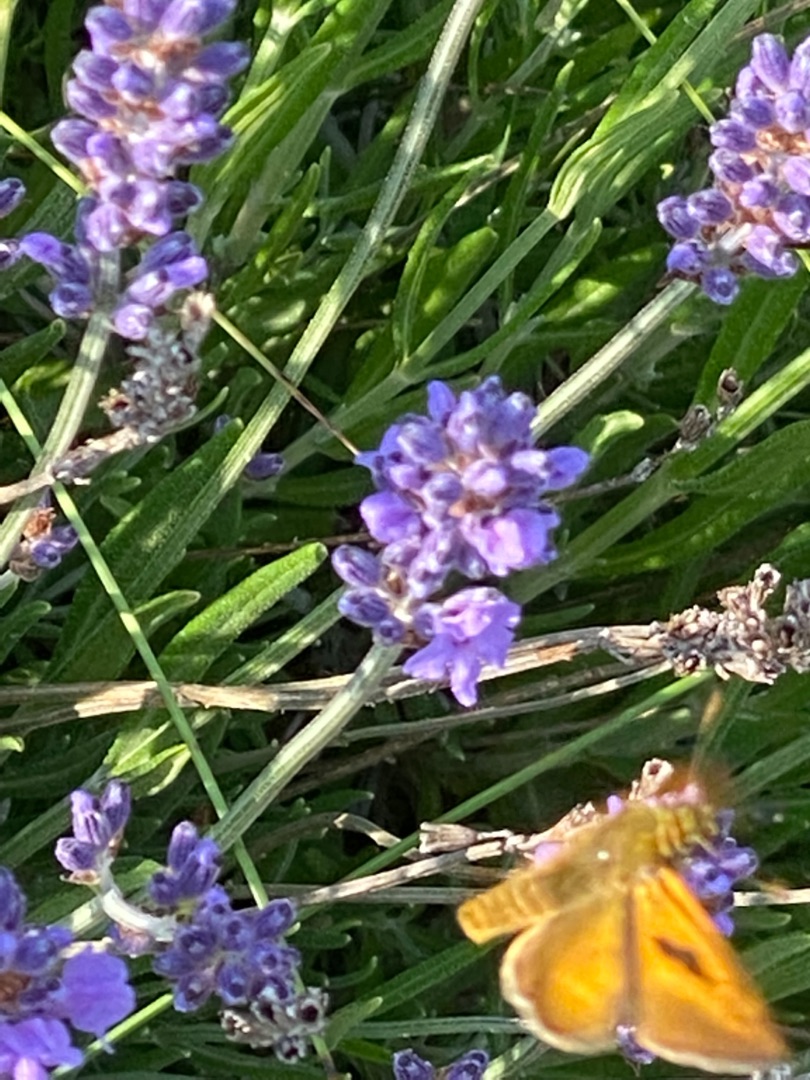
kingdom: Animalia
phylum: Arthropoda
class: Insecta
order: Lepidoptera
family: Hesperiidae
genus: Ochlodes
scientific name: Ochlodes venata
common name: Stor bredpande
